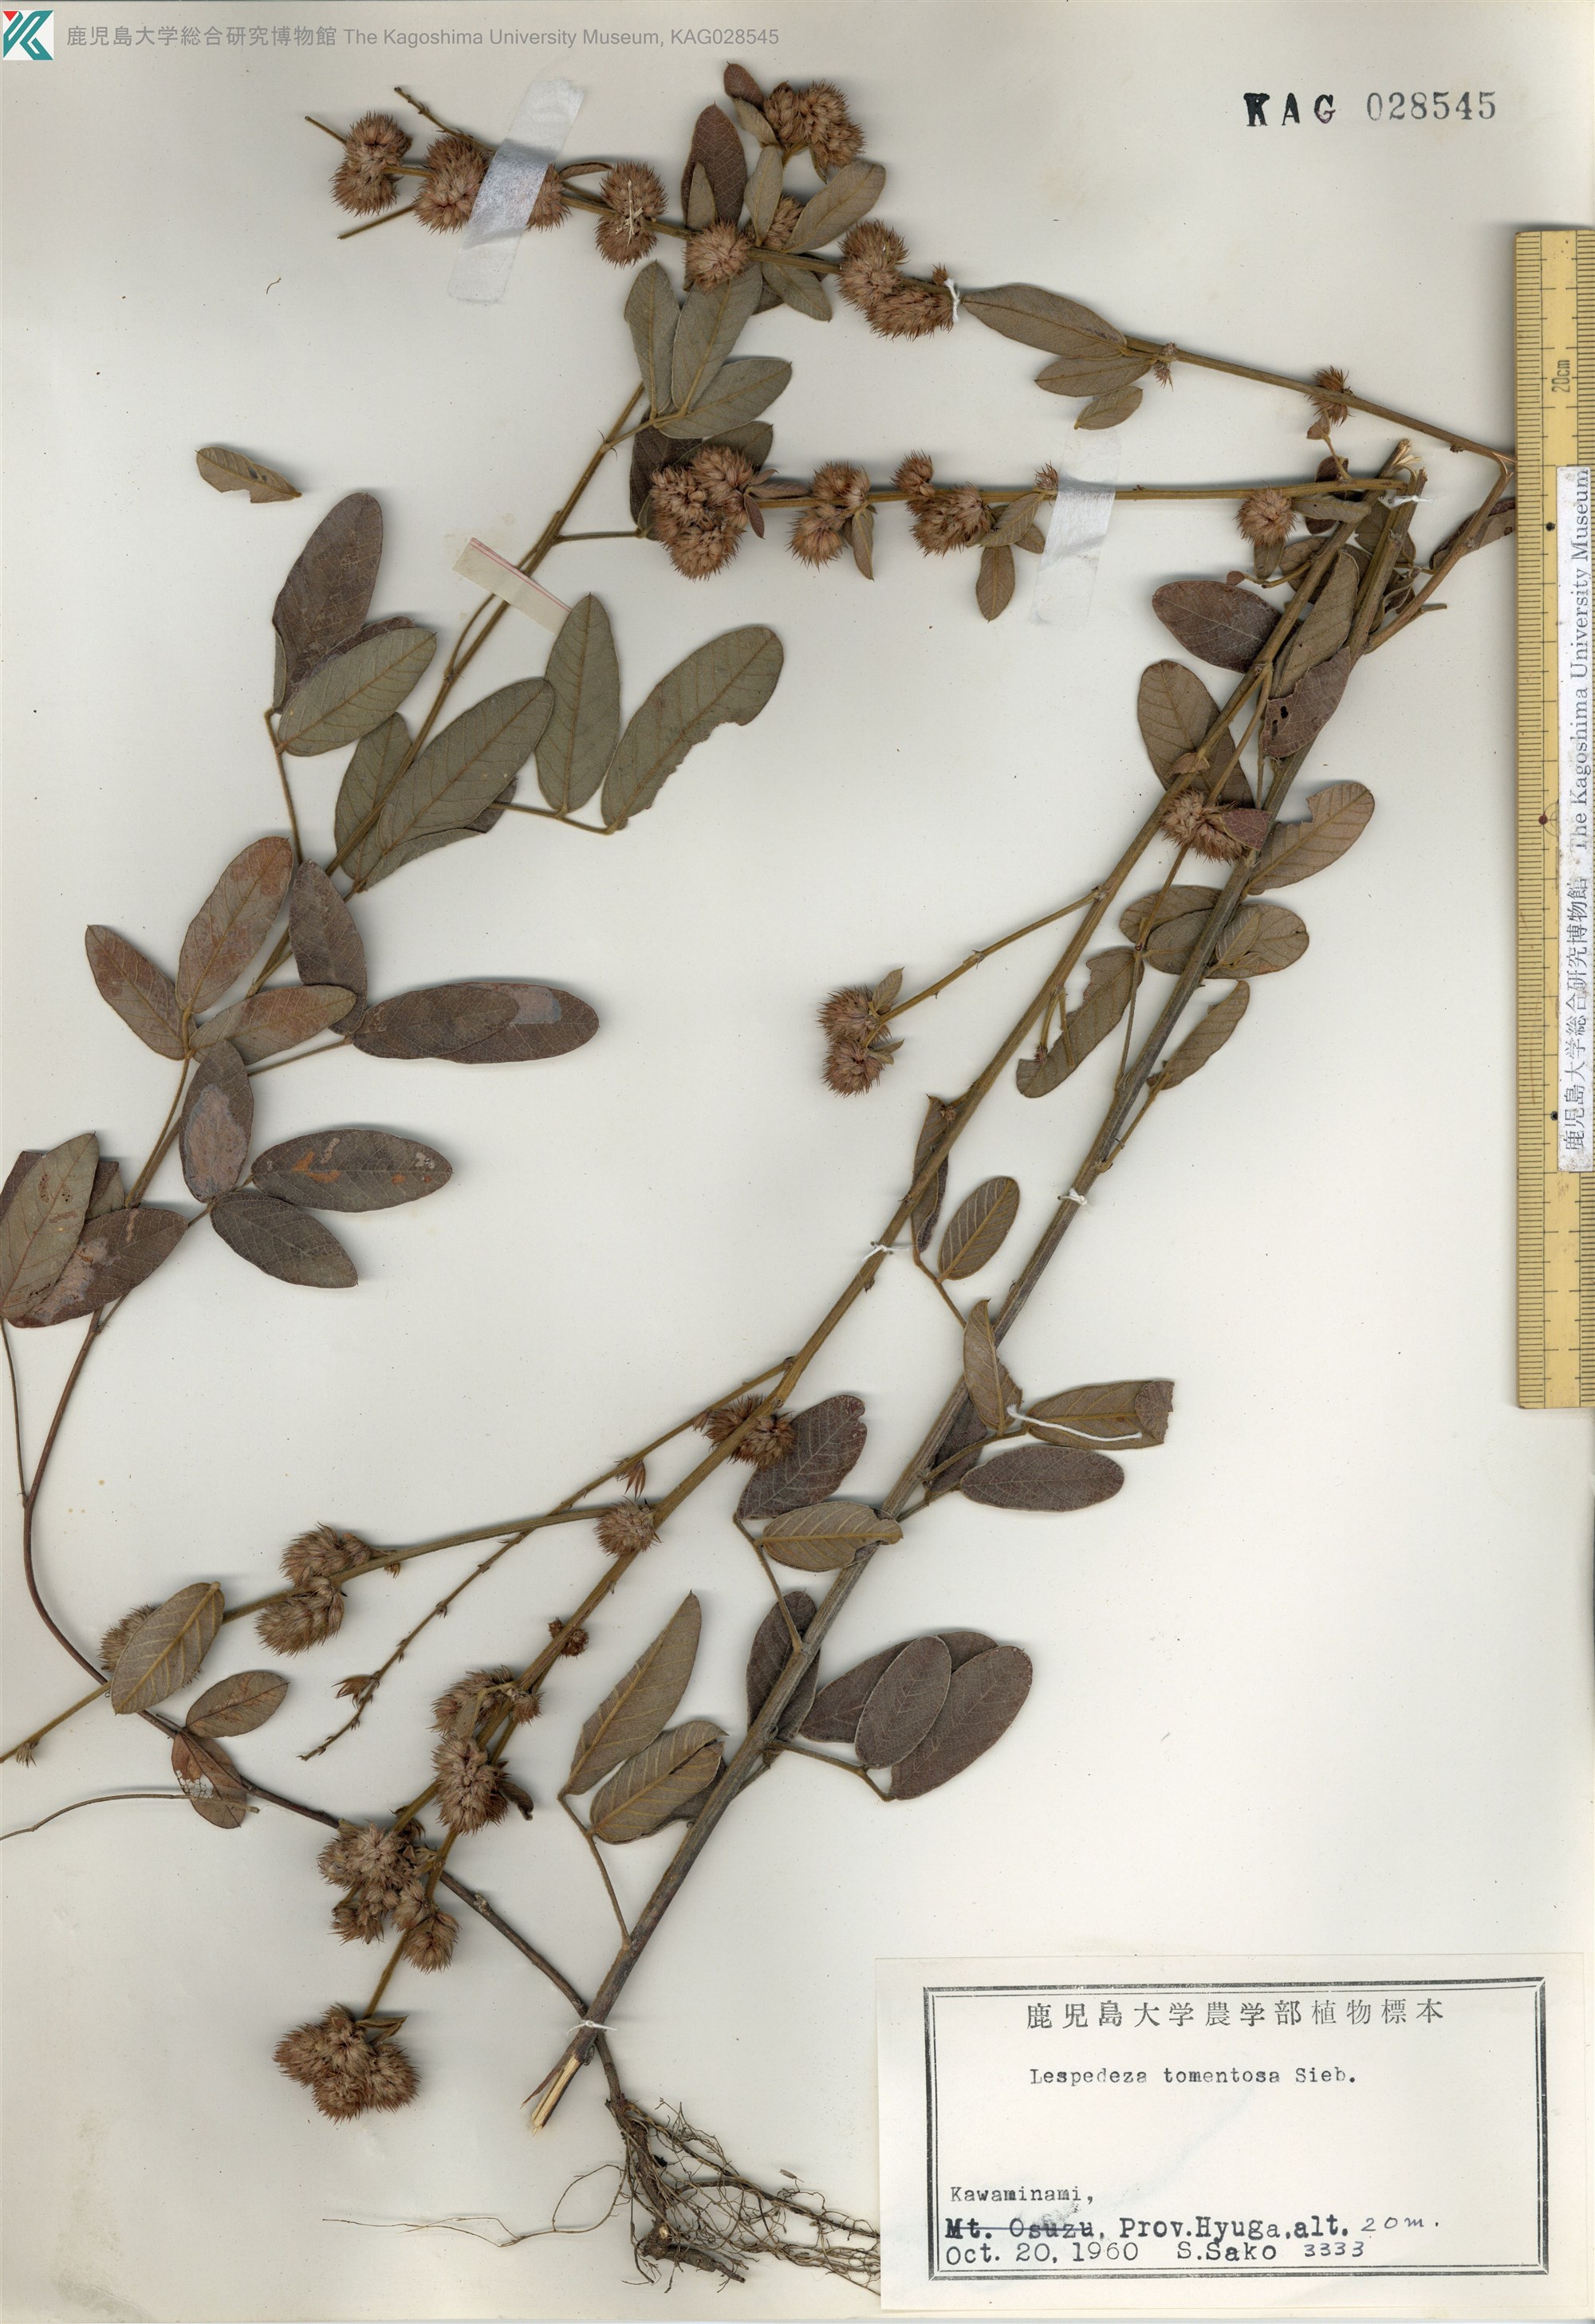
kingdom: Plantae
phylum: Tracheophyta
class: Magnoliopsida
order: Fabales
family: Fabaceae
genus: Lespedeza
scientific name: Lespedeza tomentosa
